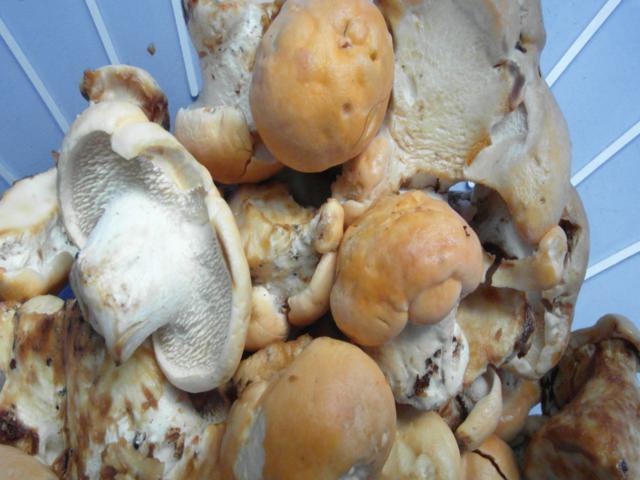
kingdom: Fungi
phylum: Basidiomycota
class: Agaricomycetes
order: Cantharellales
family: Hydnaceae
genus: Hydnum
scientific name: Hydnum slovenicum
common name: slovensk pigsvamp
